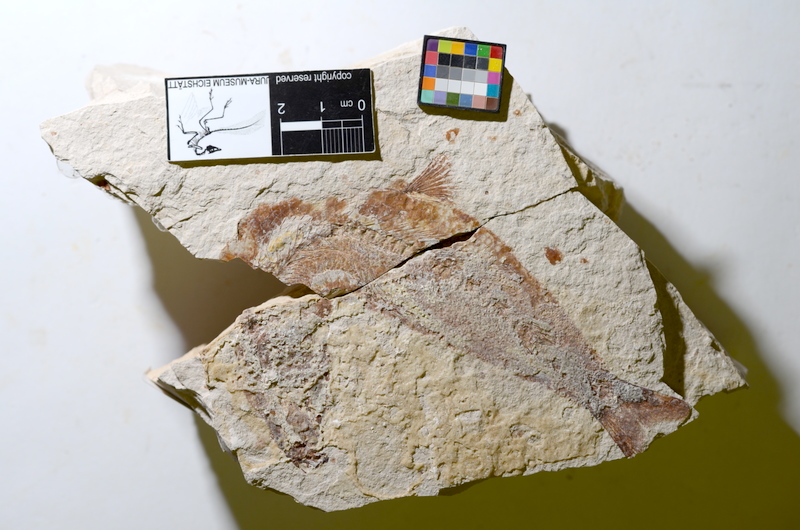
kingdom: Animalia
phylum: Chordata
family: Ascalaboidae
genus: Tharsis
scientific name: Tharsis dubius
